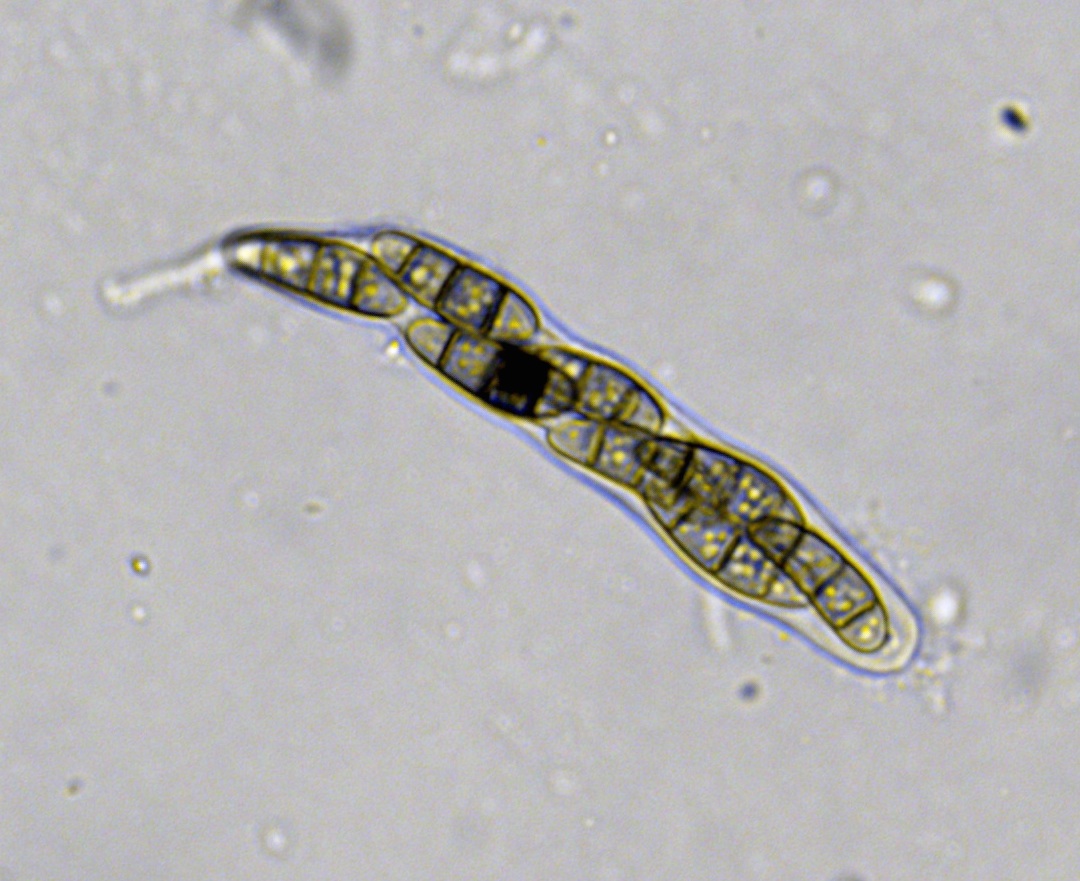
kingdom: Fungi
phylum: Ascomycota
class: Dothideomycetes
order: Hysteriales
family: Hysteriaceae
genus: Hysterium
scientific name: Hysterium acuminatum
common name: almindelig kulmund
